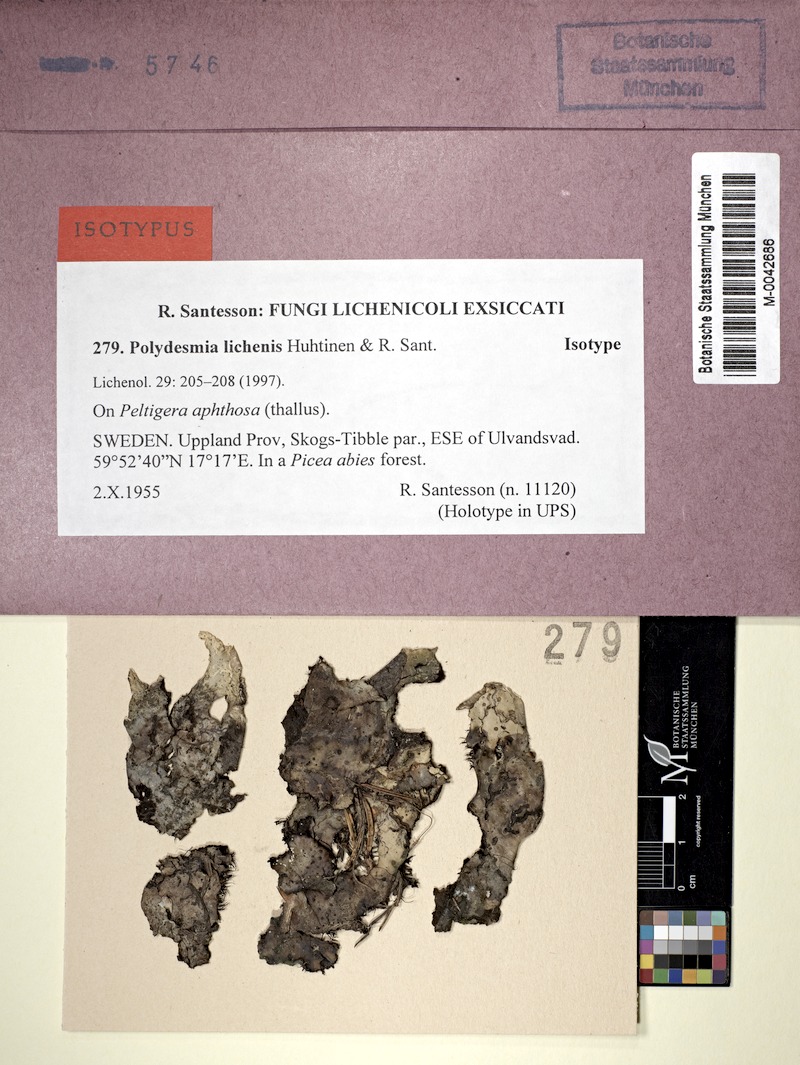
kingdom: Fungi
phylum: Ascomycota
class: Lecanoromycetes
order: Peltigerales
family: Peltigeraceae
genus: Peltigera
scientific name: Peltigera aphthosa
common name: Common freckle pelt lichen
